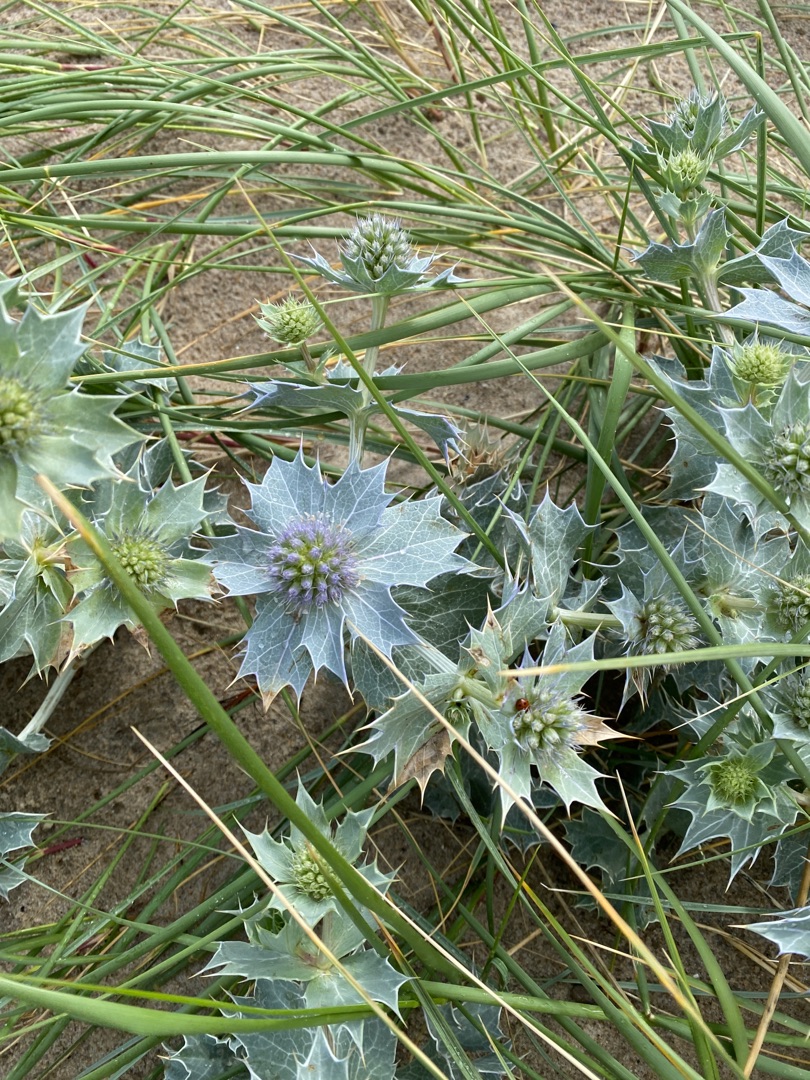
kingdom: Plantae
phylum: Tracheophyta
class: Magnoliopsida
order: Apiales
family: Apiaceae
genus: Eryngium
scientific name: Eryngium maritimum
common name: Strand-mandstro
